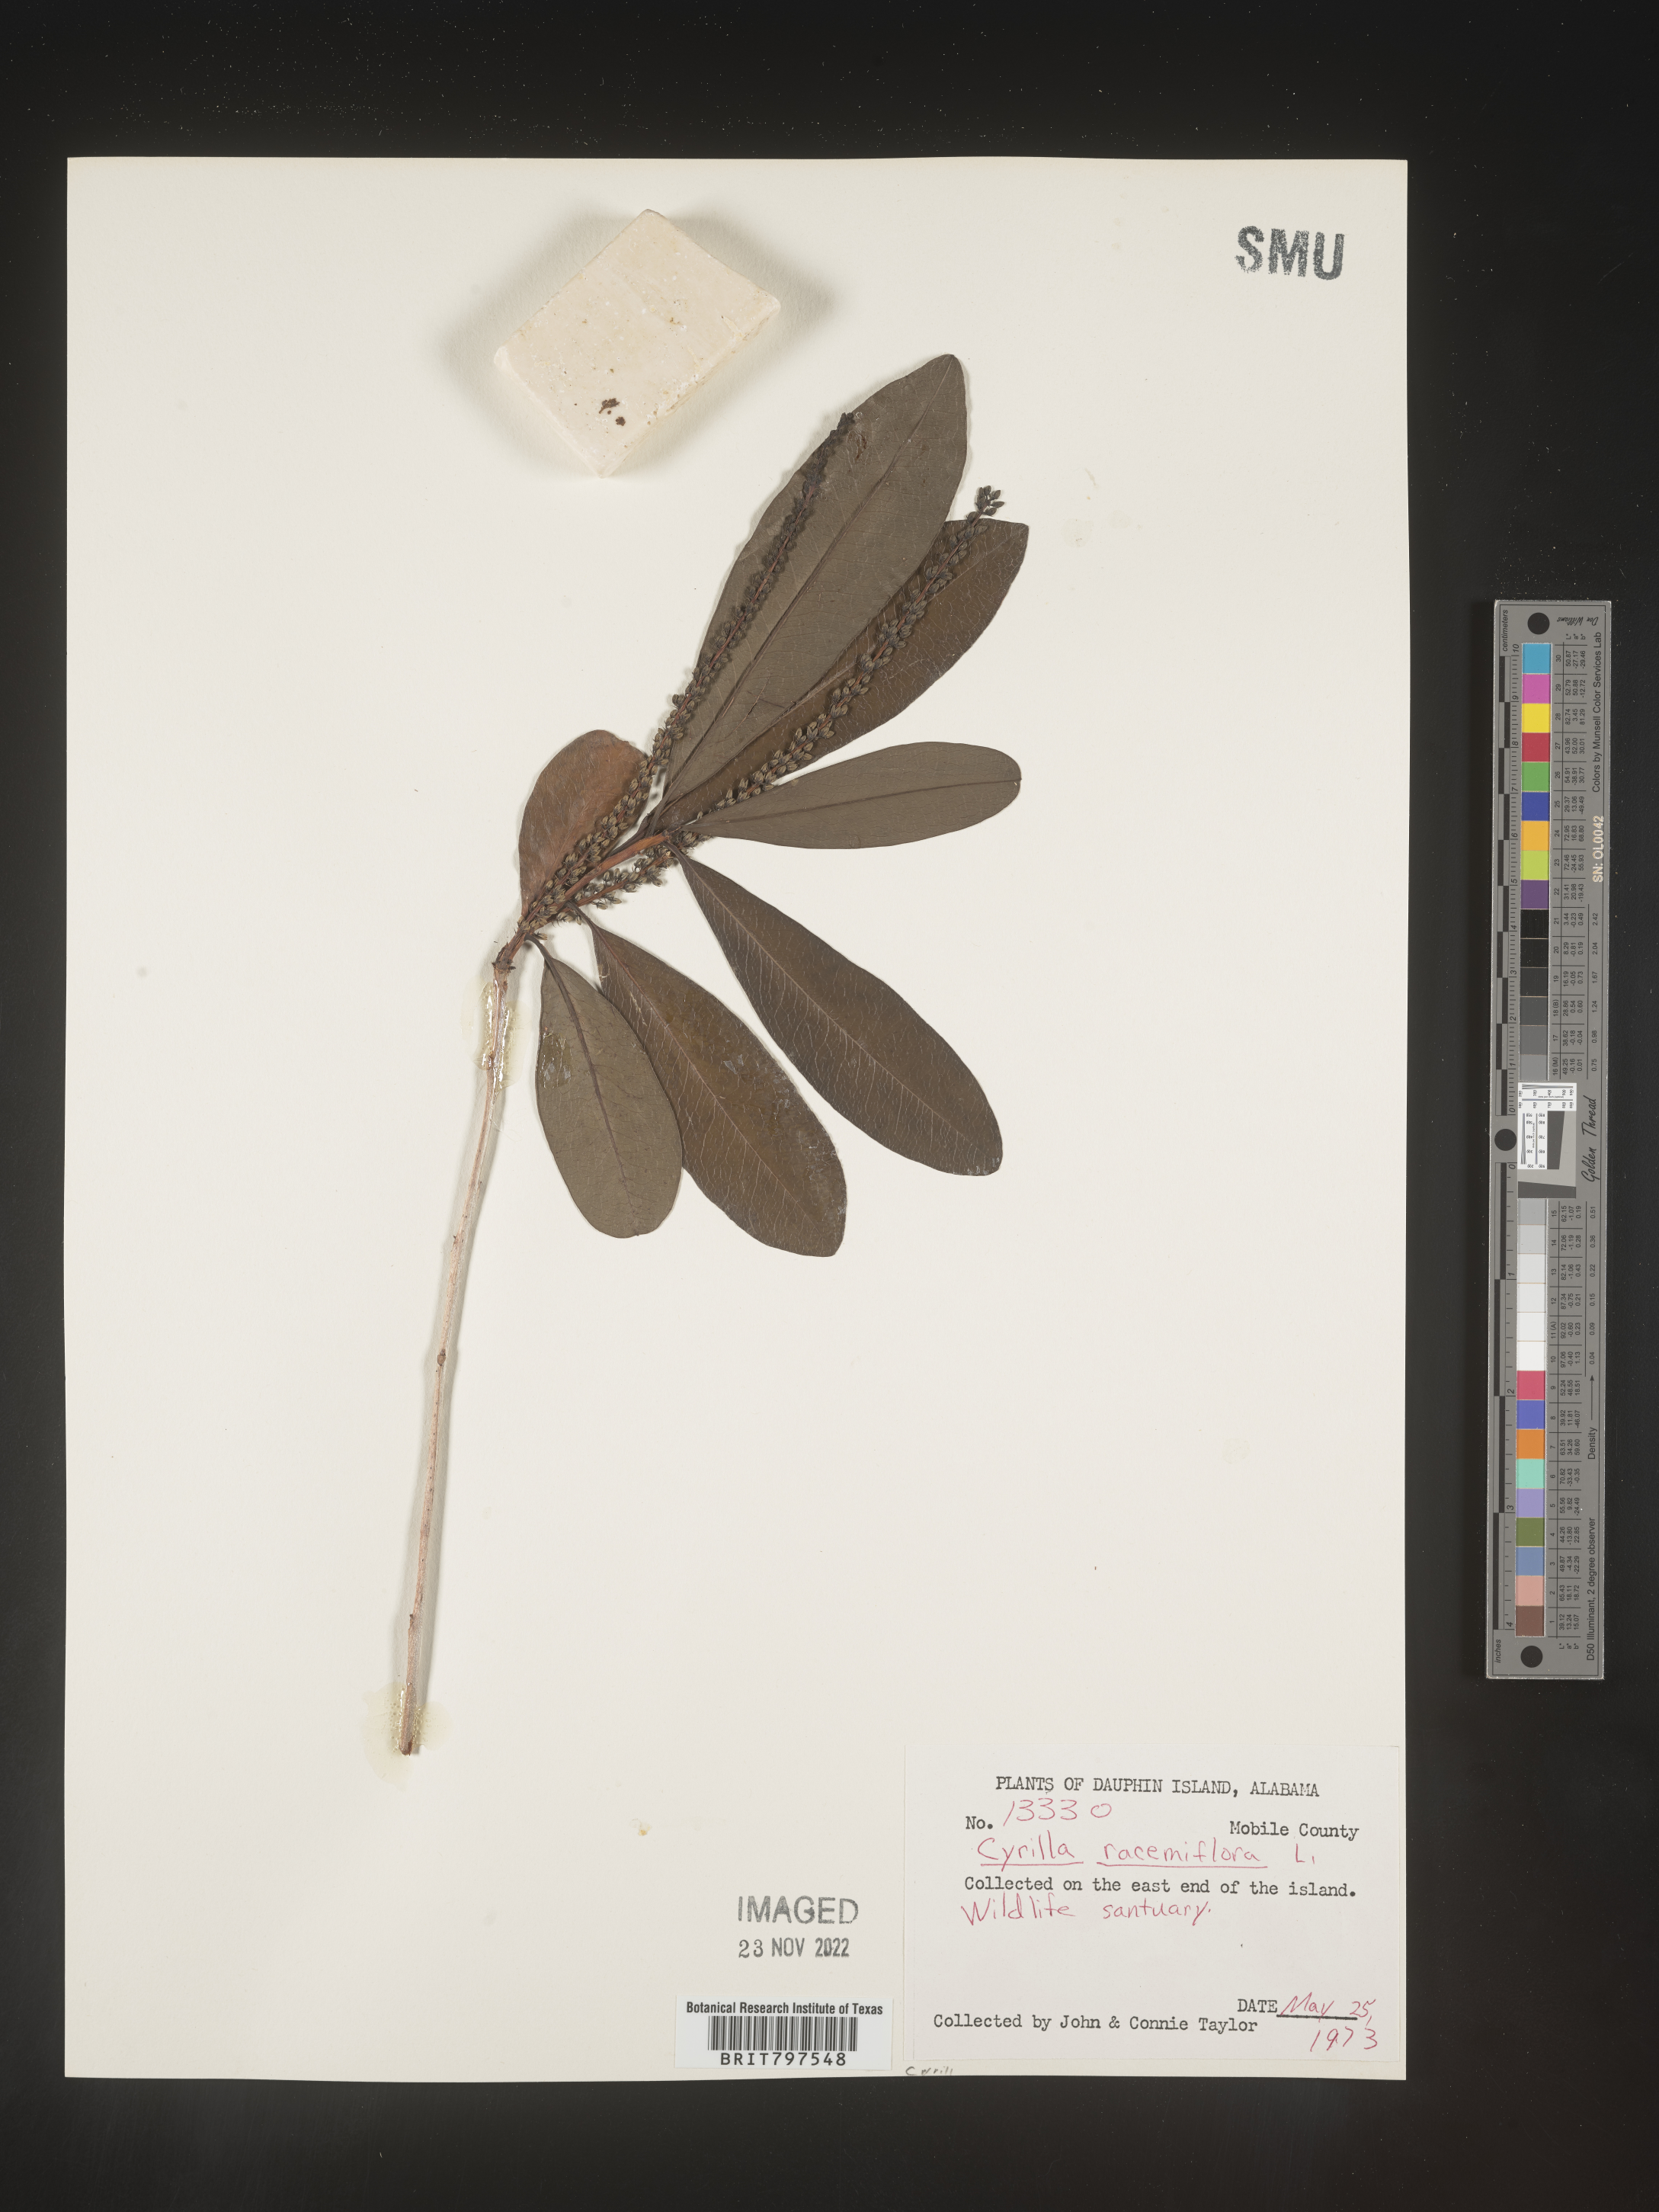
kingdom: Plantae
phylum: Tracheophyta
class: Magnoliopsida
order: Ericales
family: Cyrillaceae
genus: Cyrilla
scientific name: Cyrilla racemiflora
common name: Black titi
